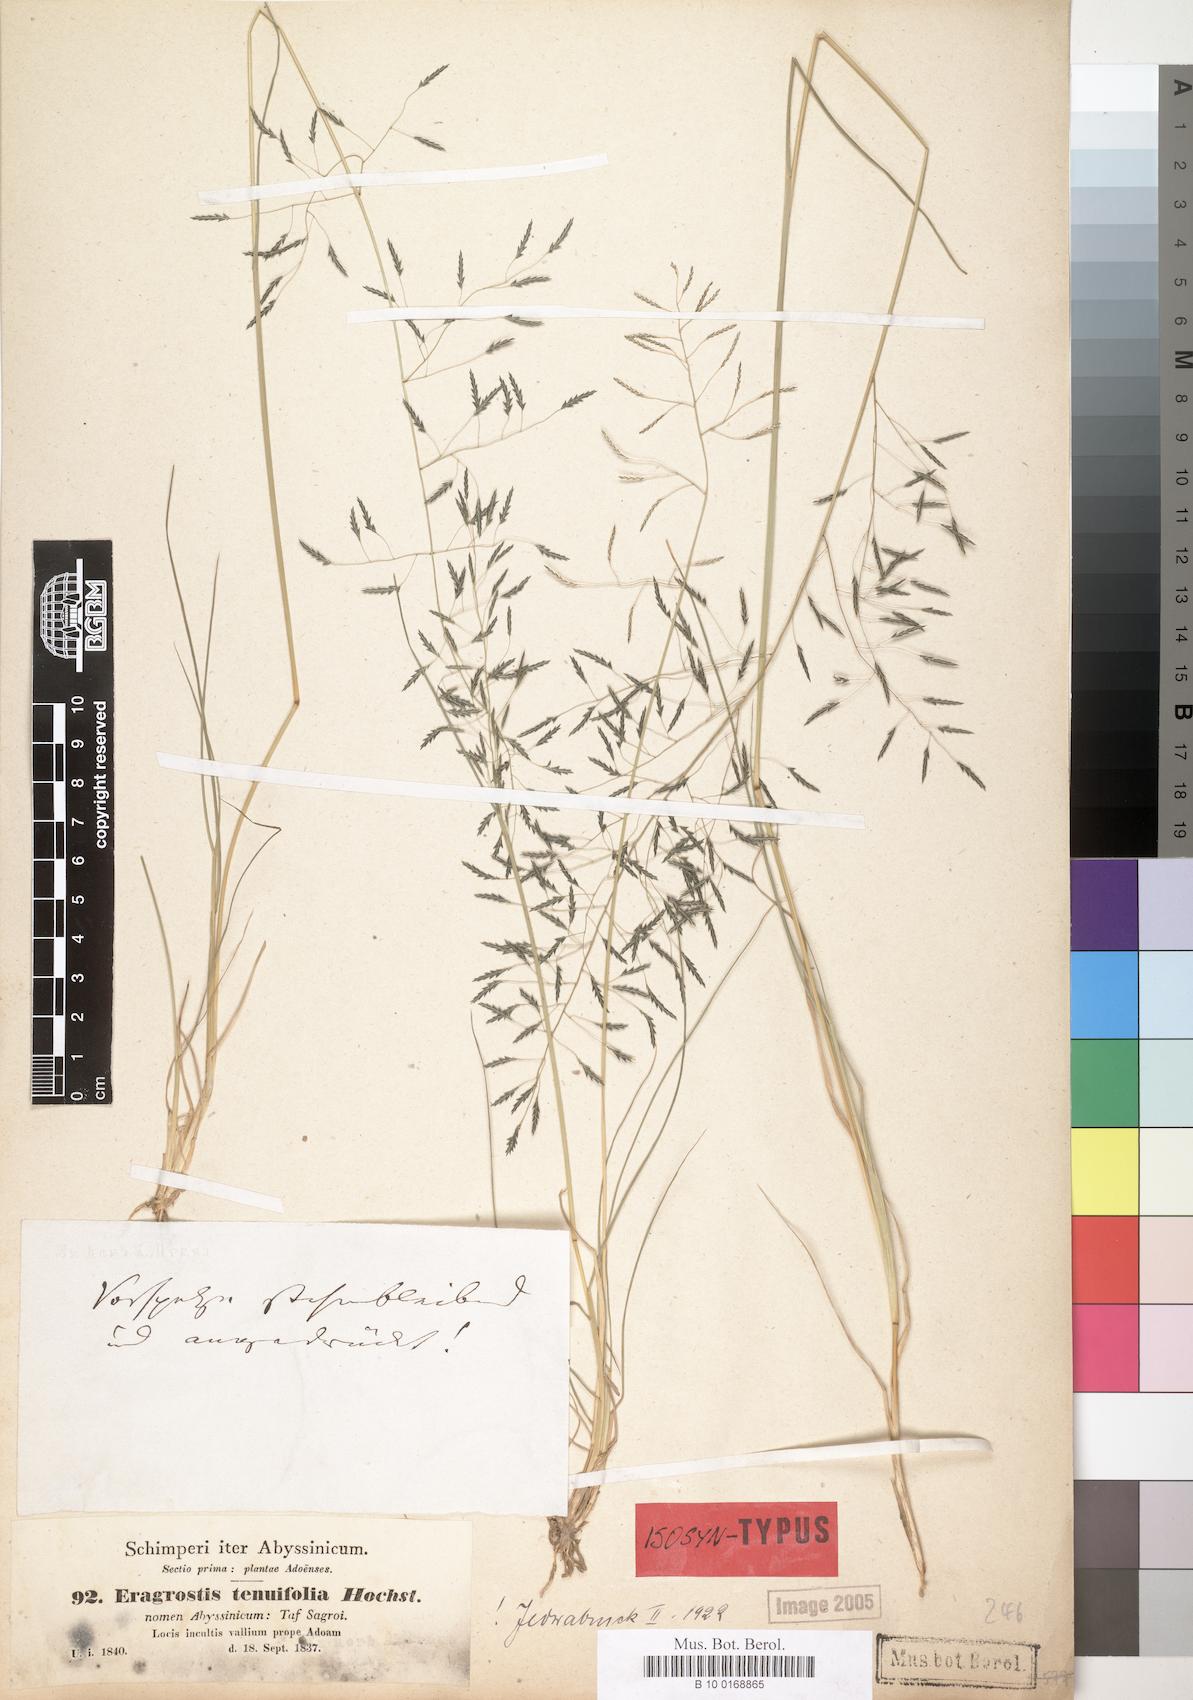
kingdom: Plantae
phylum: Tracheophyta
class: Liliopsida
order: Poales
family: Poaceae
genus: Eragrostis
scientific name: Eragrostis tenuifolia
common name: Elastic grass
